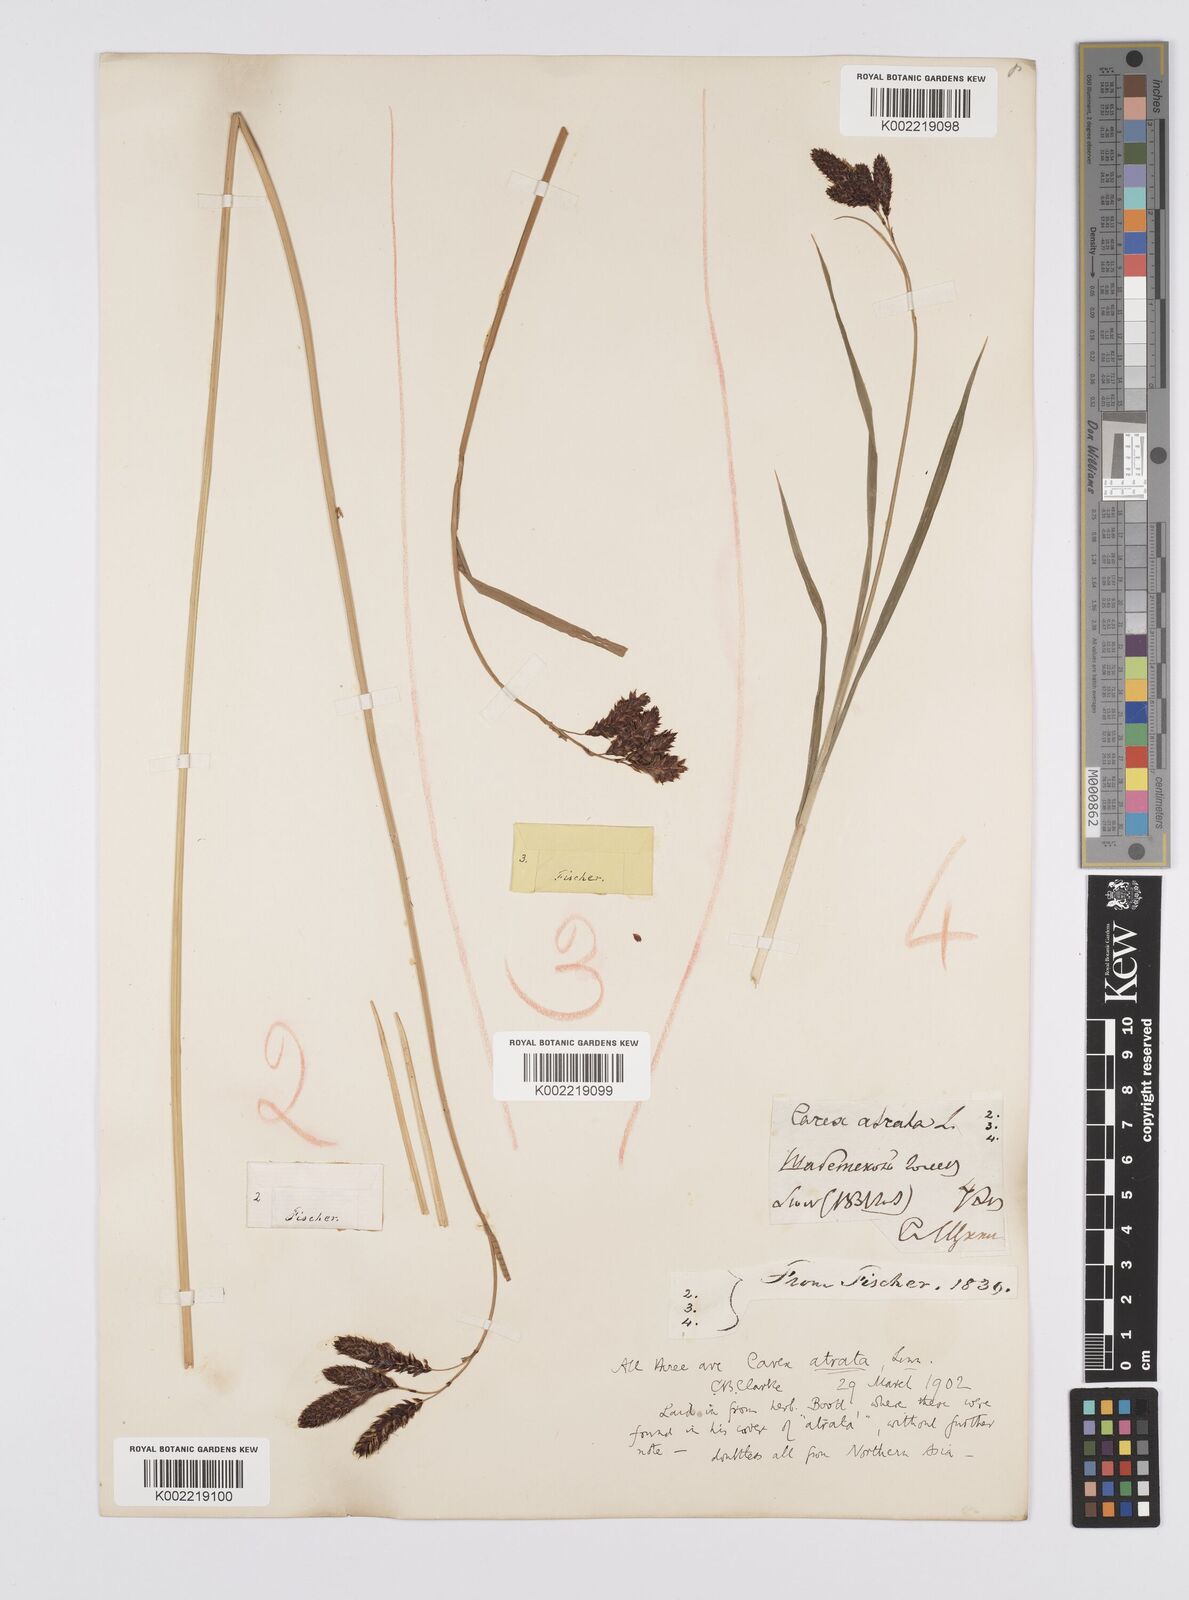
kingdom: Plantae
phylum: Tracheophyta
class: Liliopsida
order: Poales
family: Cyperaceae
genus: Carex
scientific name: Carex aterrima
